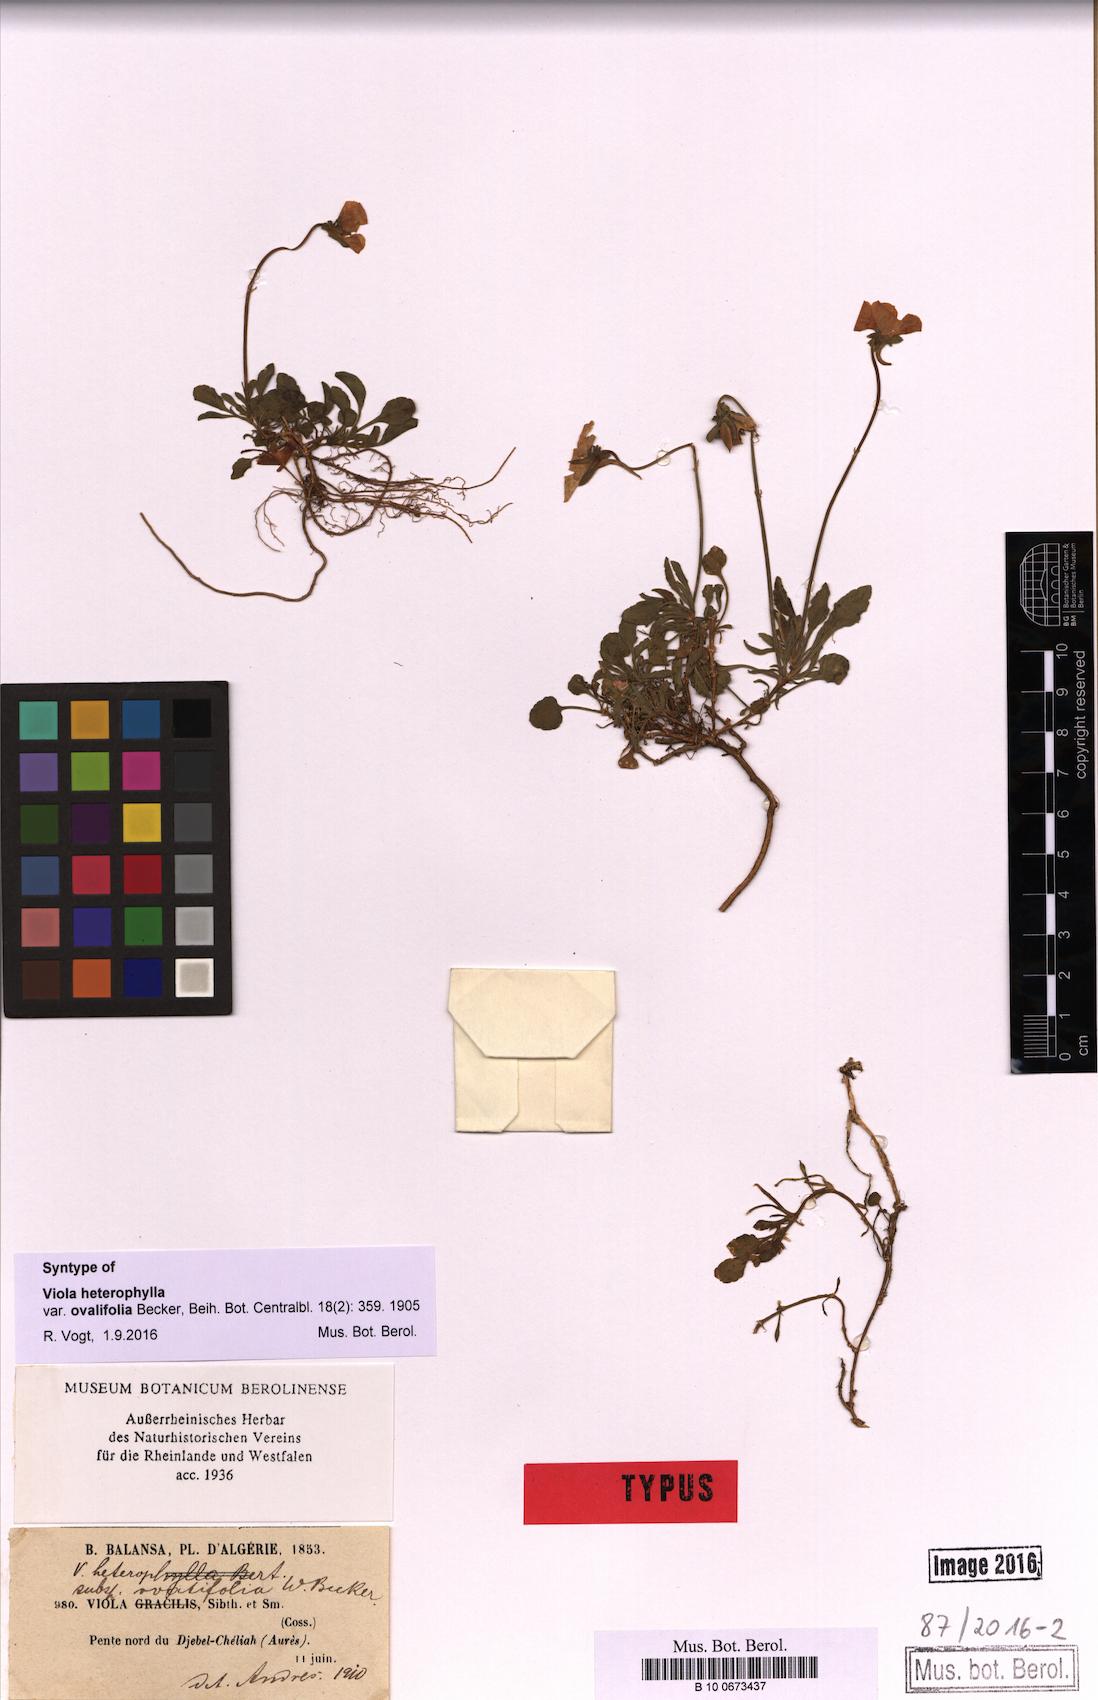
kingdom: Plantae
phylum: Tracheophyta
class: Magnoliopsida
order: Malpighiales
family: Violaceae
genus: Viola
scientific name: Viola heterophylla
